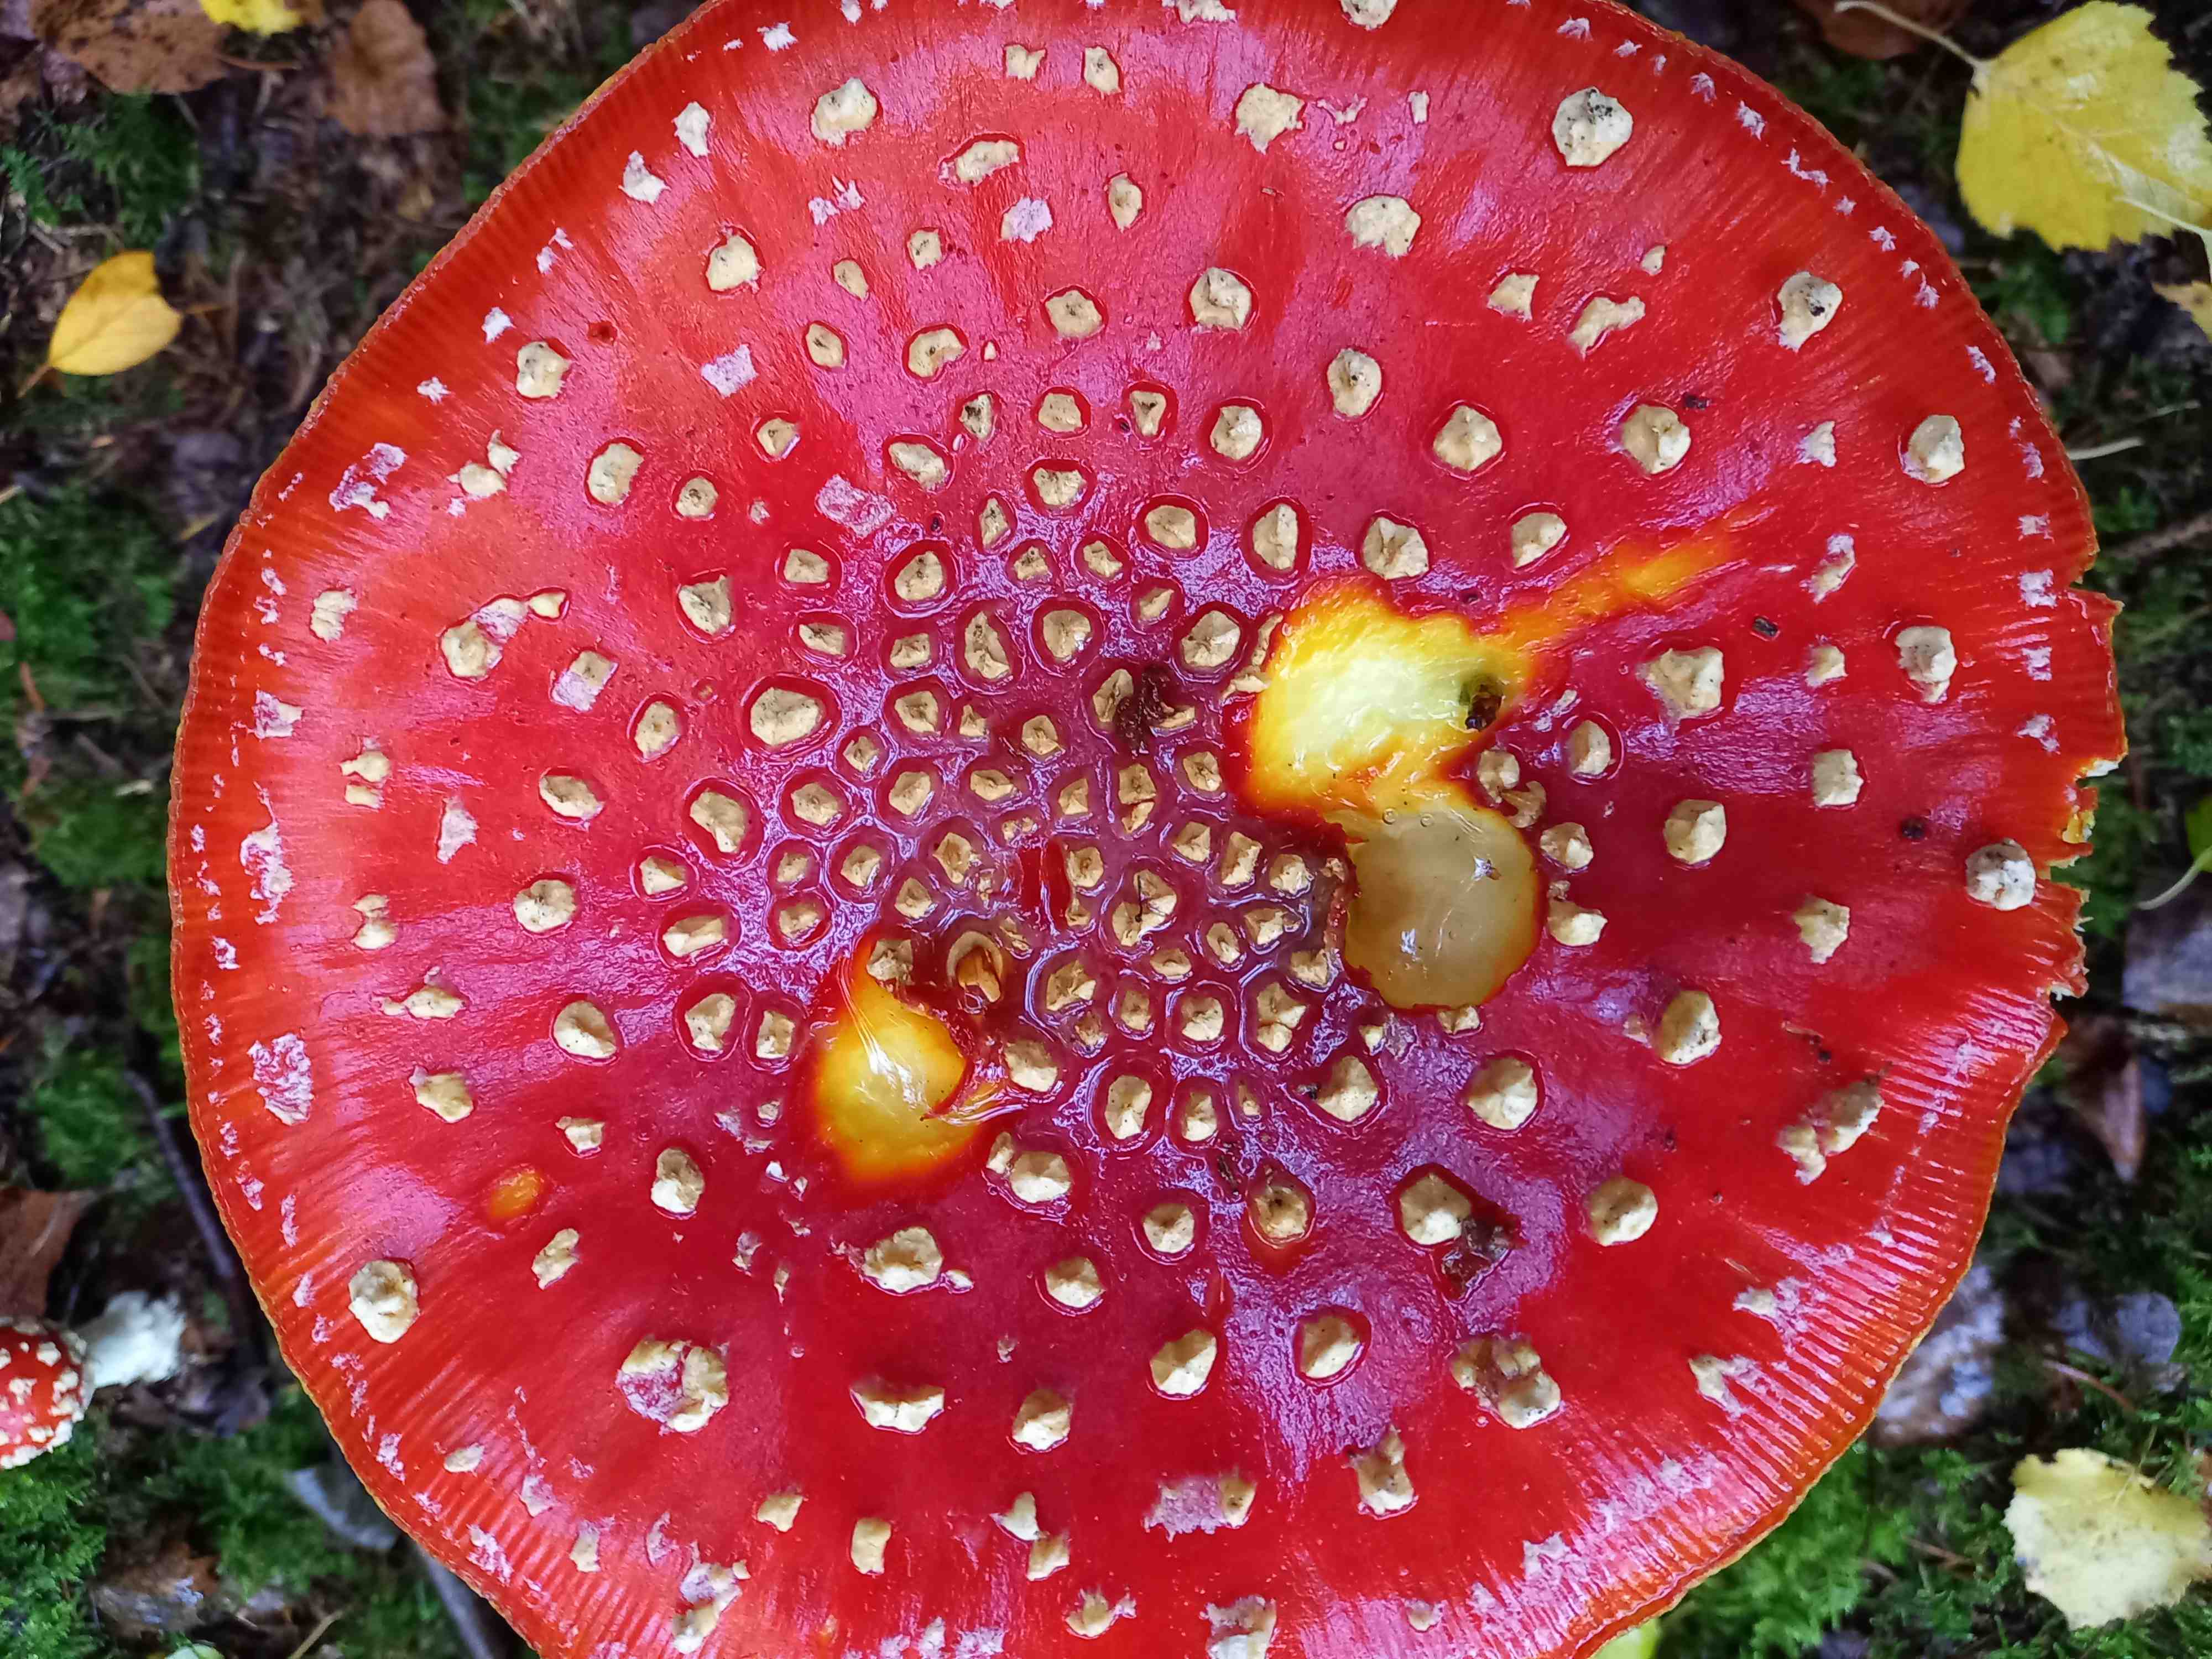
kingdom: Fungi
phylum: Basidiomycota
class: Agaricomycetes
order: Agaricales
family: Amanitaceae
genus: Amanita
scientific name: Amanita muscaria
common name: rød fluesvamp
